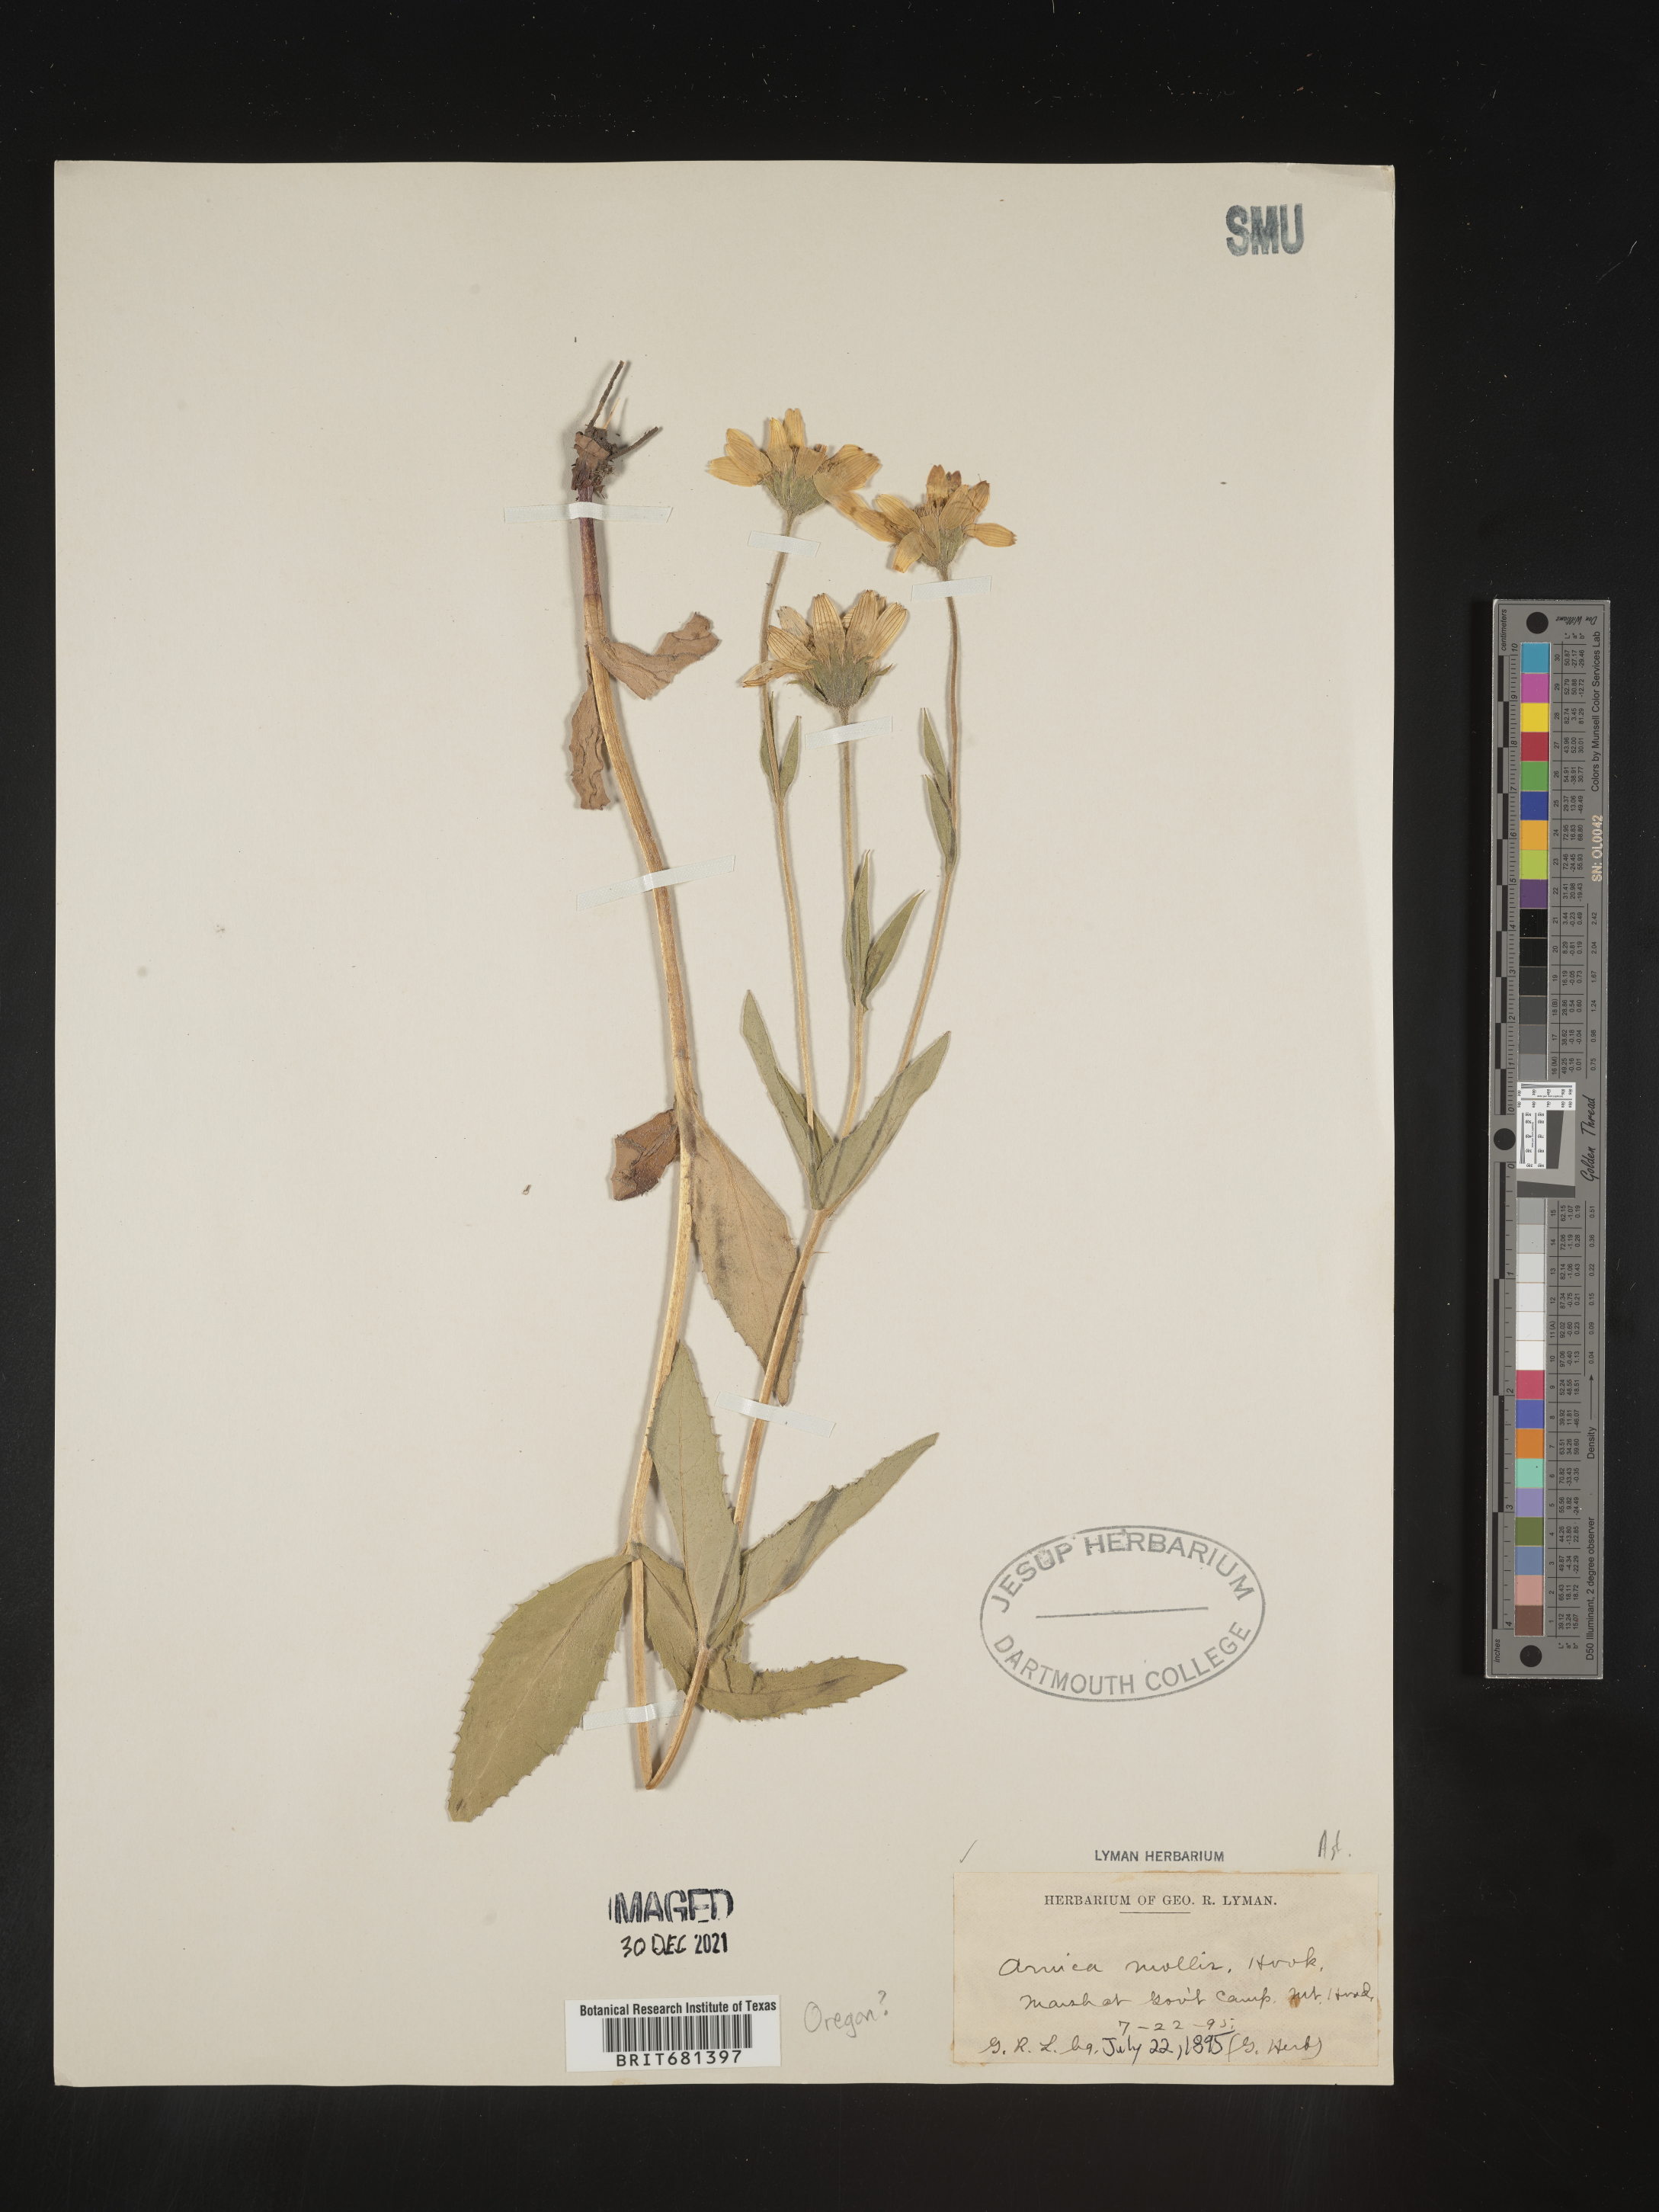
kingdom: Plantae
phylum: Tracheophyta
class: Magnoliopsida
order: Asterales
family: Asteraceae
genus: Arnica
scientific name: Arnica mollis
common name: Hairy arnica
